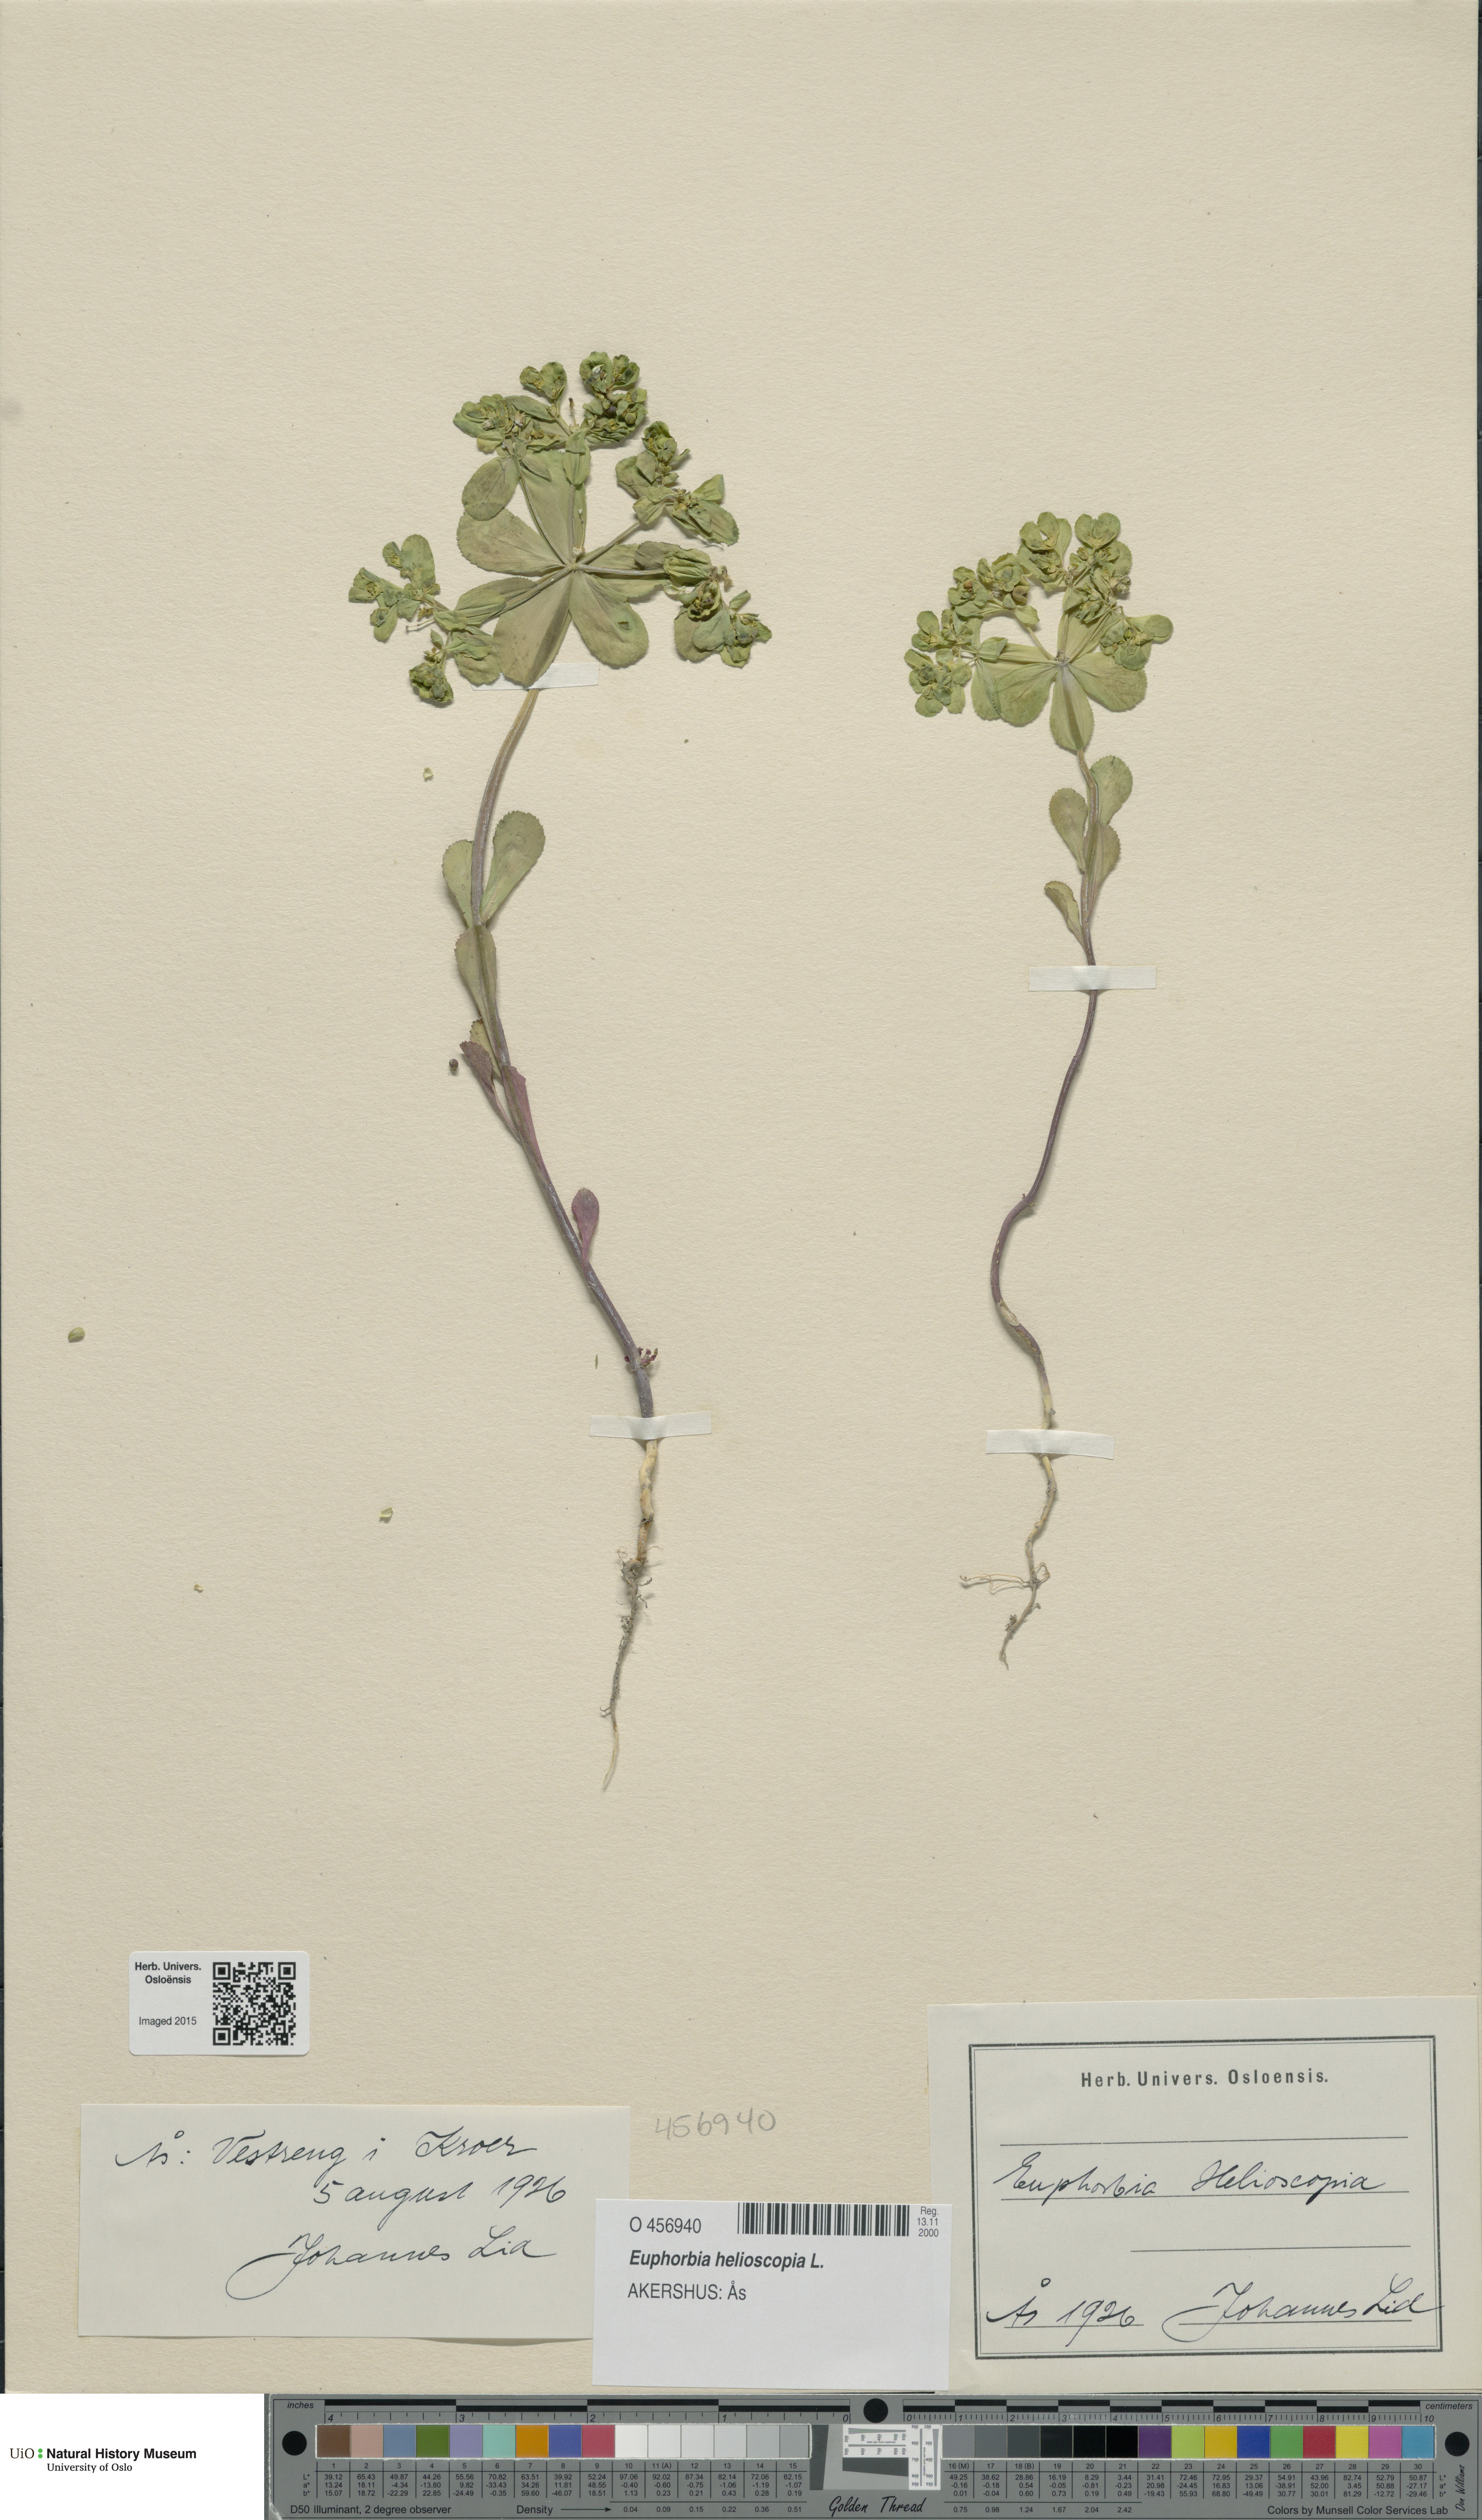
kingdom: Plantae
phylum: Tracheophyta
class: Magnoliopsida
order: Malpighiales
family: Euphorbiaceae
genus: Euphorbia
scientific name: Euphorbia helioscopia
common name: Sun spurge
